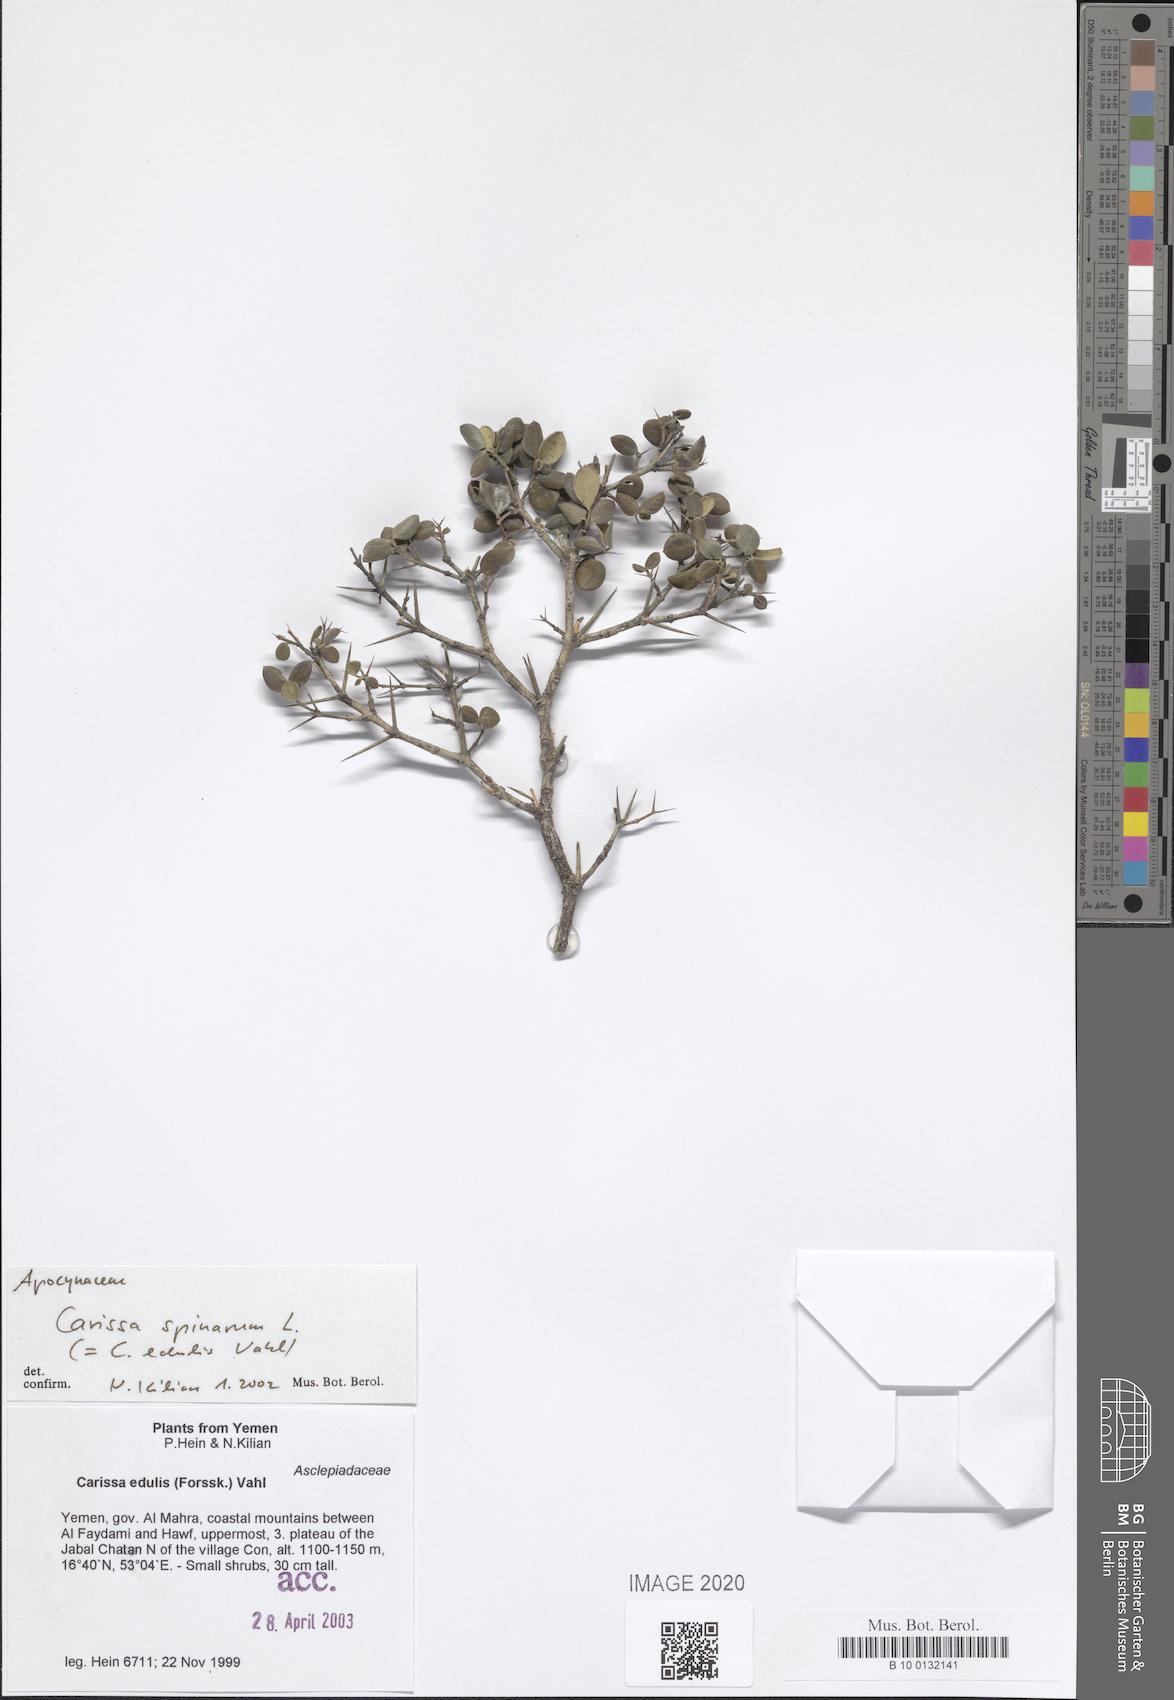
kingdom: Plantae
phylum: Tracheophyta
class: Magnoliopsida
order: Gentianales
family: Apocynaceae
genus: Carissa
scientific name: Carissa spinarum
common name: Egyptian carissa
